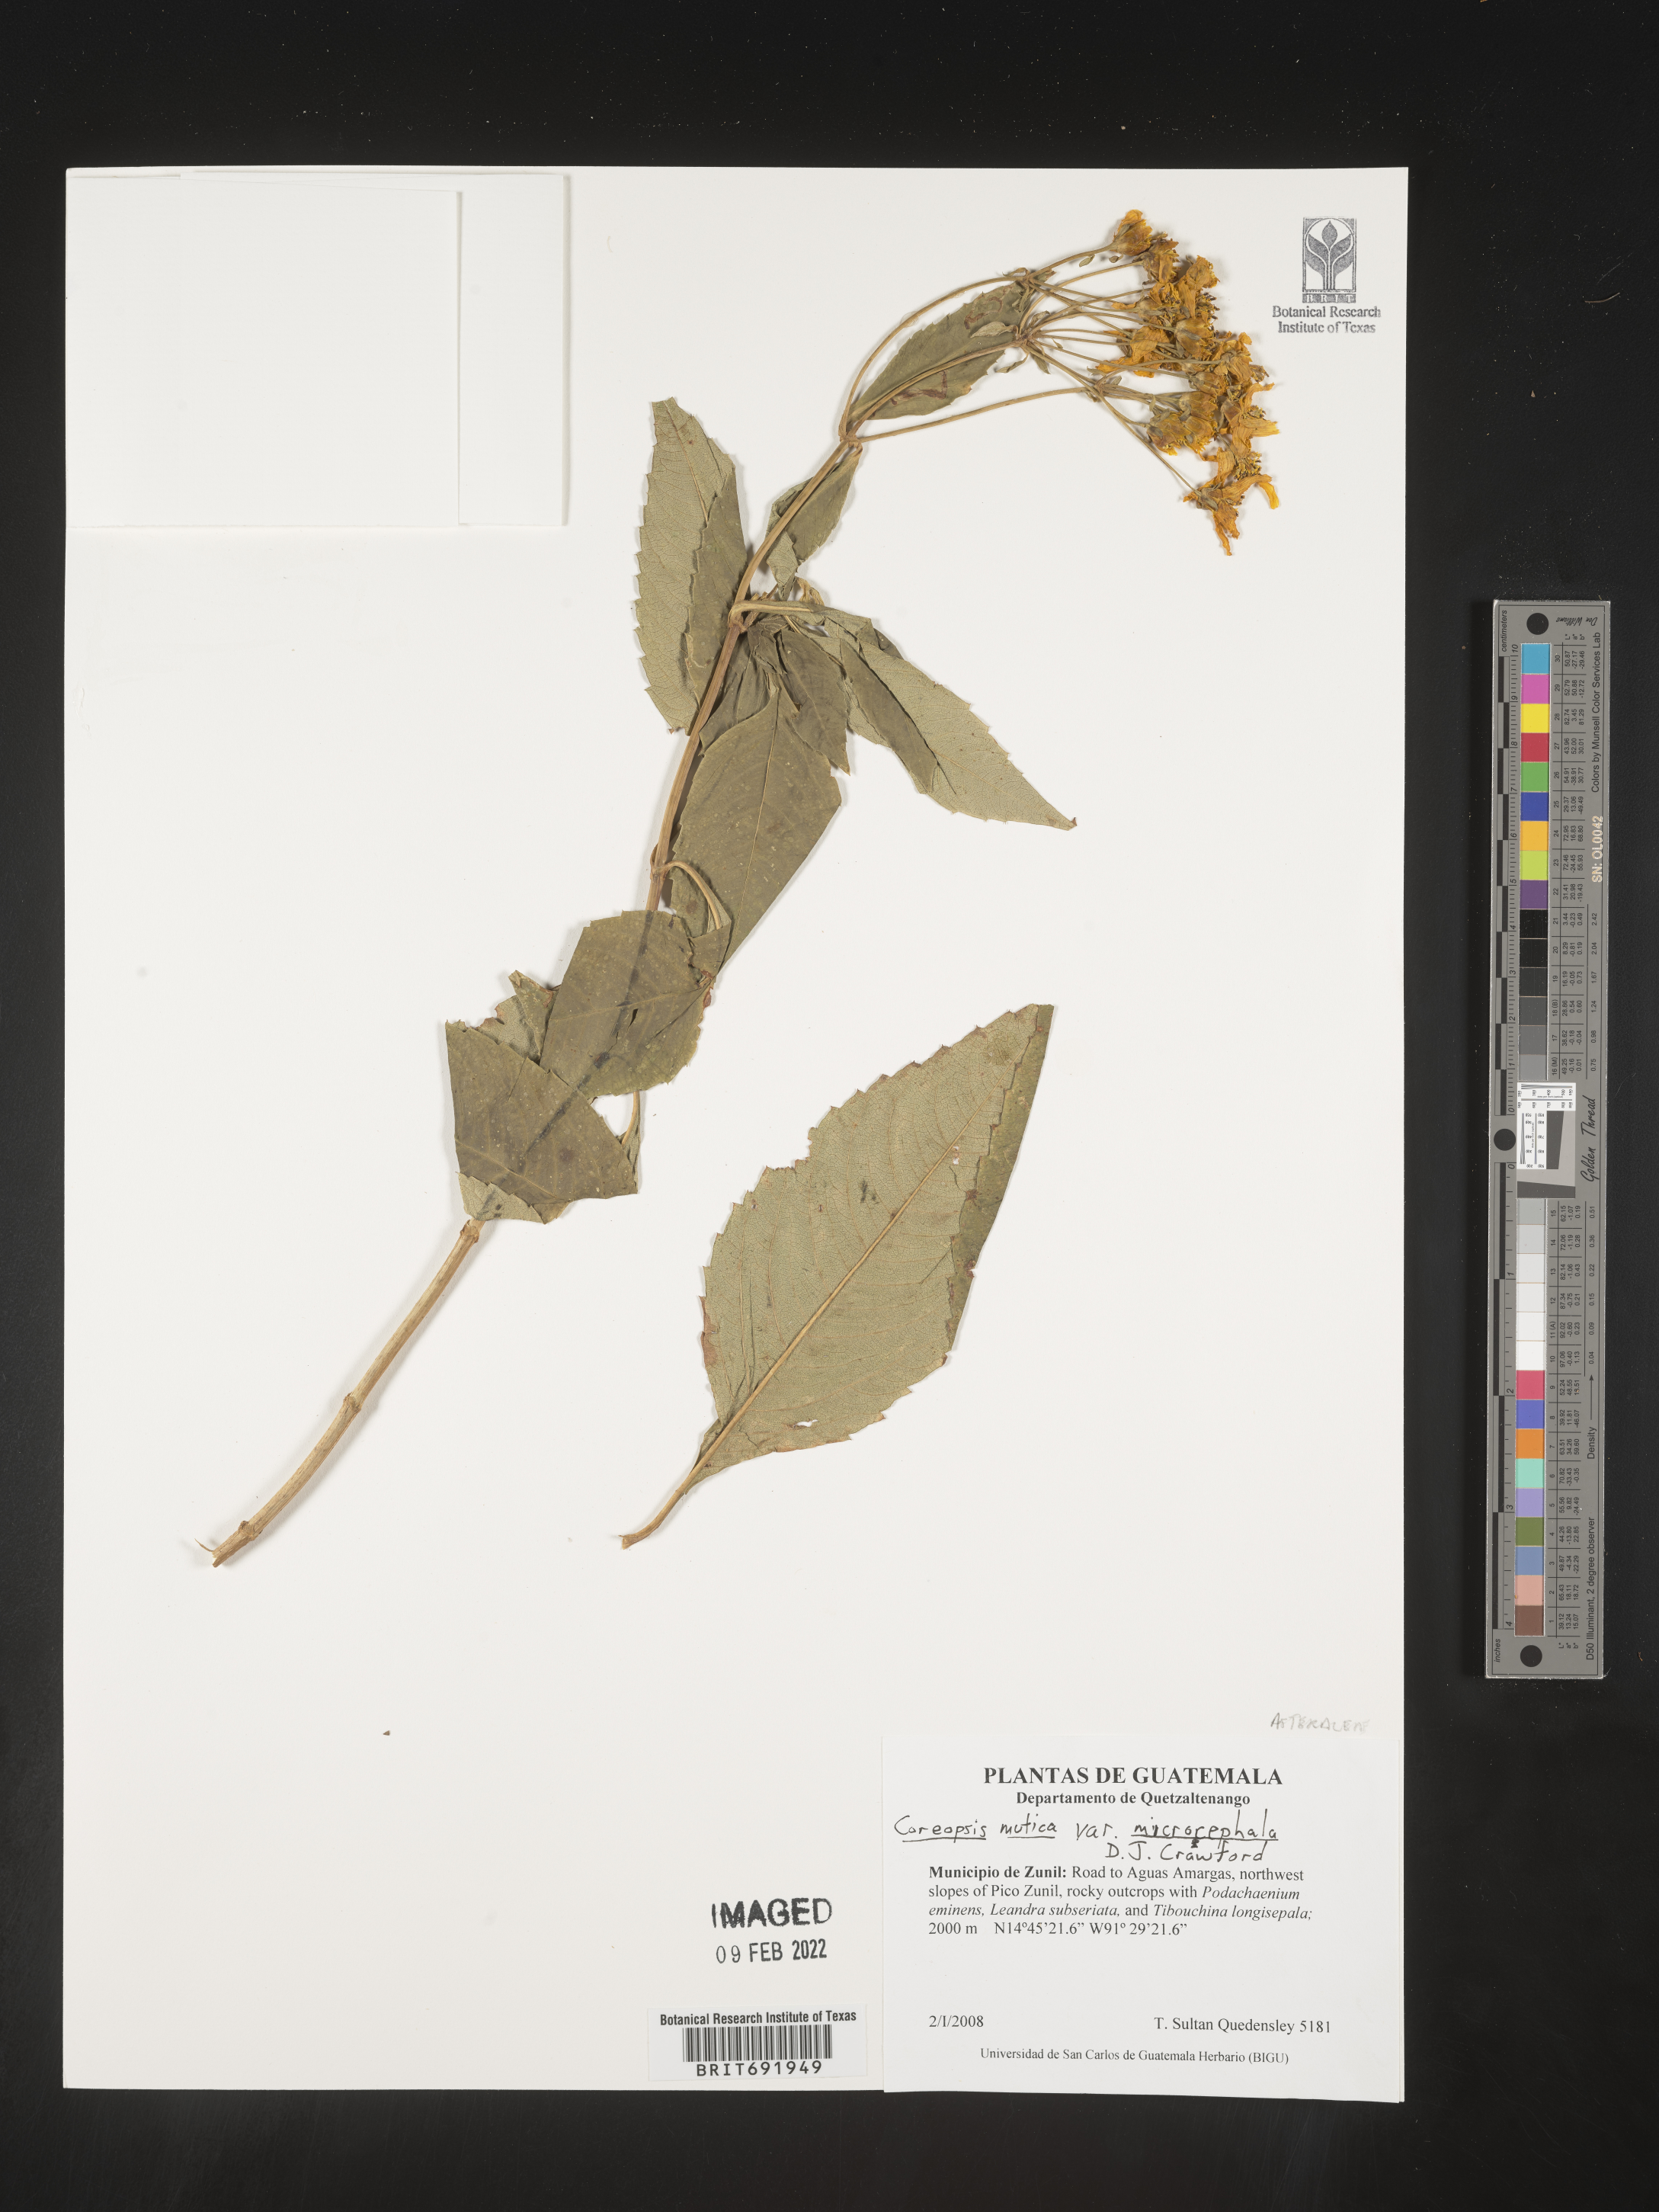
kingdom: Plantae
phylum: Tracheophyta
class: Magnoliopsida
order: Asterales
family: Asteraceae
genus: Coreopsis
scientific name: Coreopsis
